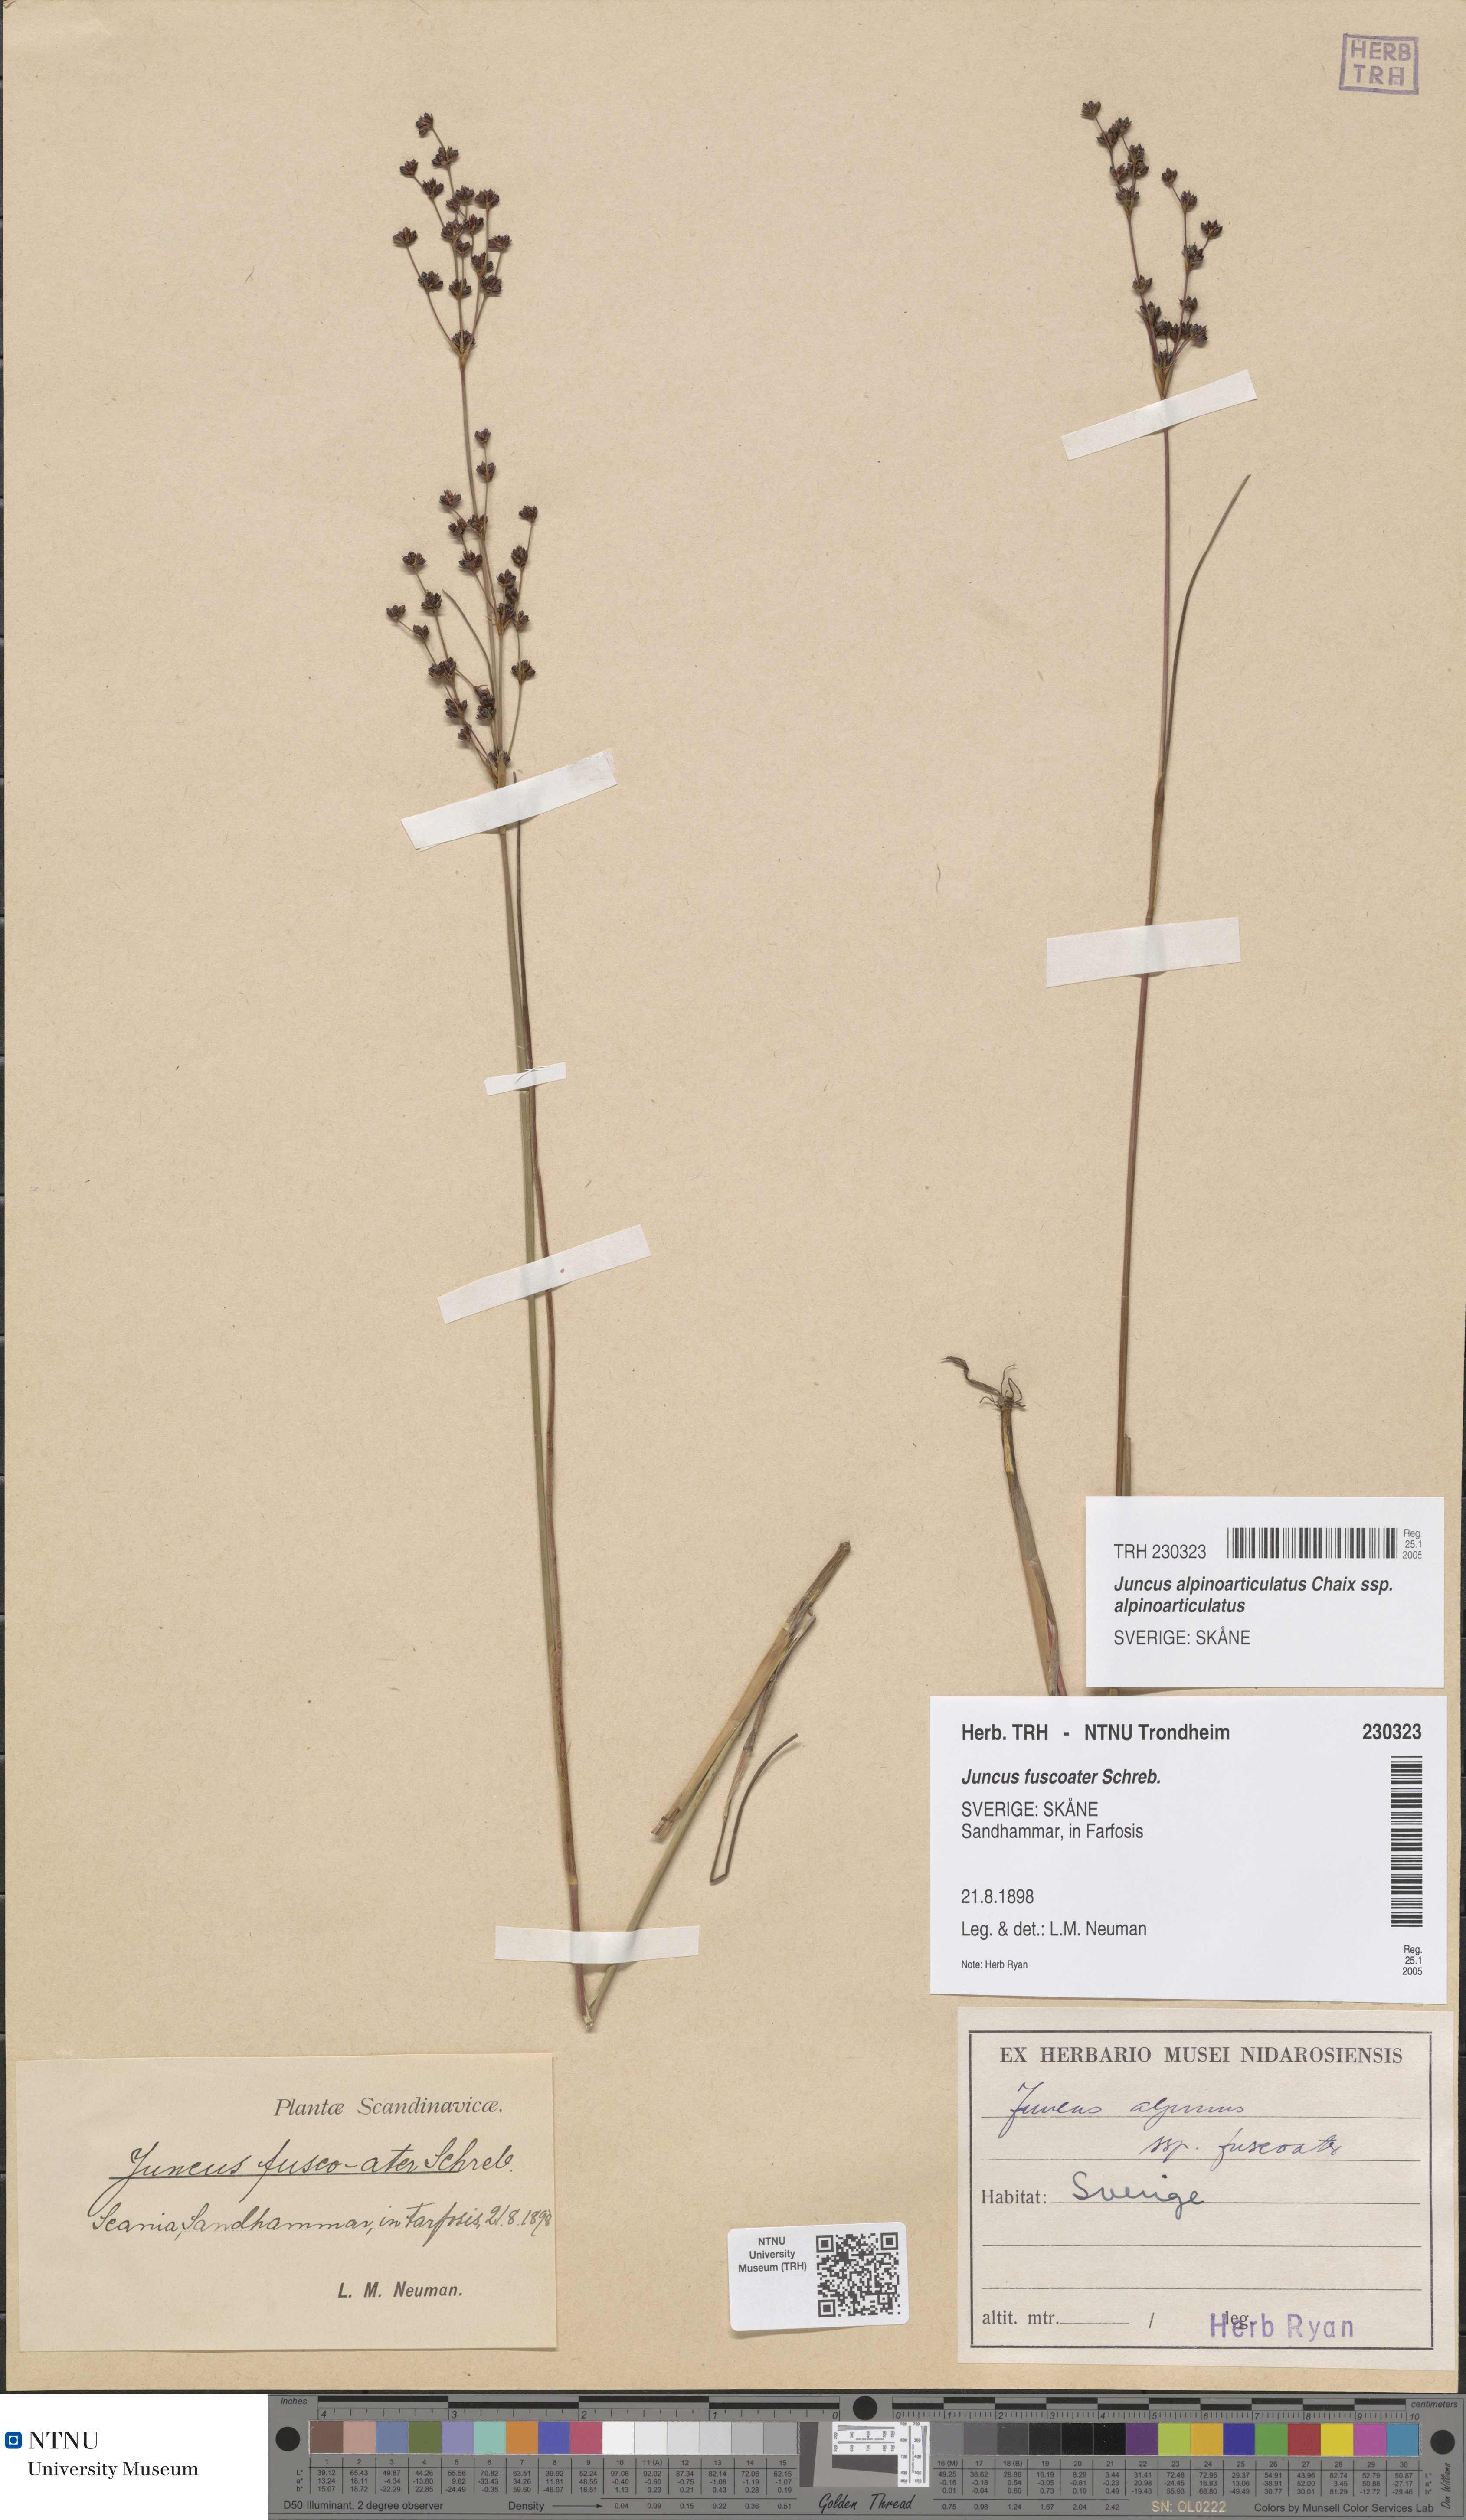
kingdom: Plantae
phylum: Tracheophyta
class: Liliopsida
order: Poales
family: Juncaceae
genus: Juncus
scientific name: Juncus alpinoarticulatus
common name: Alpine rush
